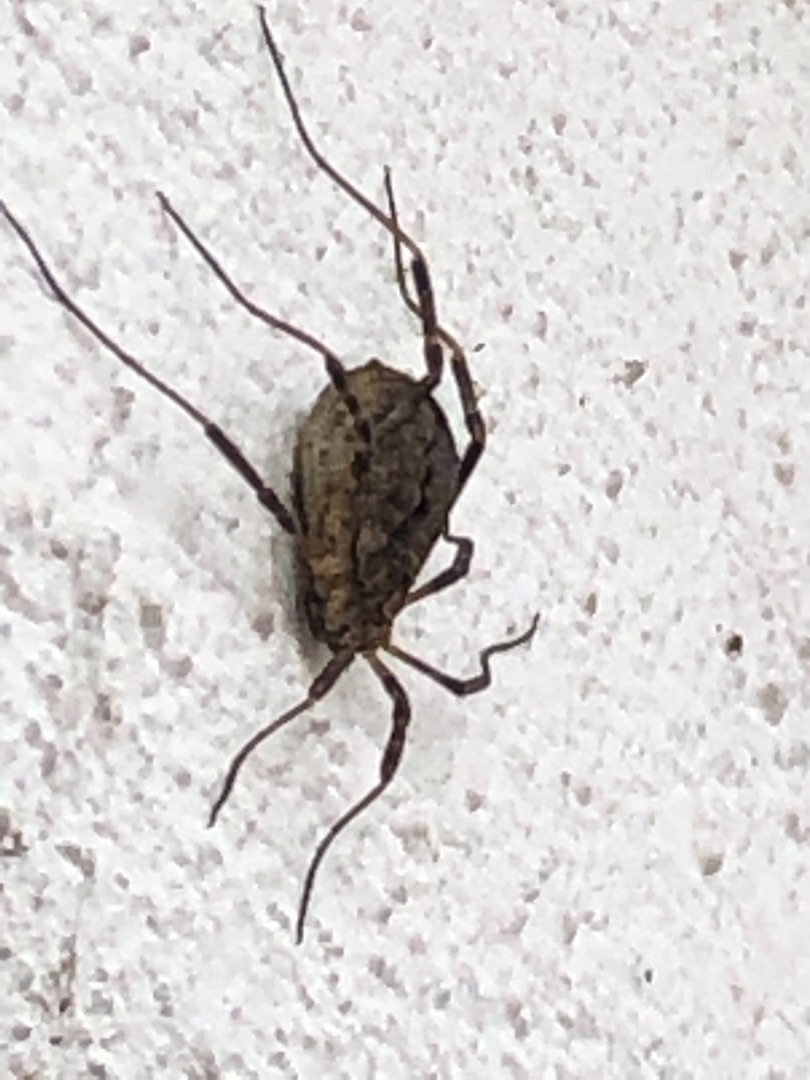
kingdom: Animalia
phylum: Arthropoda
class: Arachnida
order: Opiliones
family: Phalangiidae
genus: Odiellus
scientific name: Odiellus spinosus
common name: Kæmpemejer
